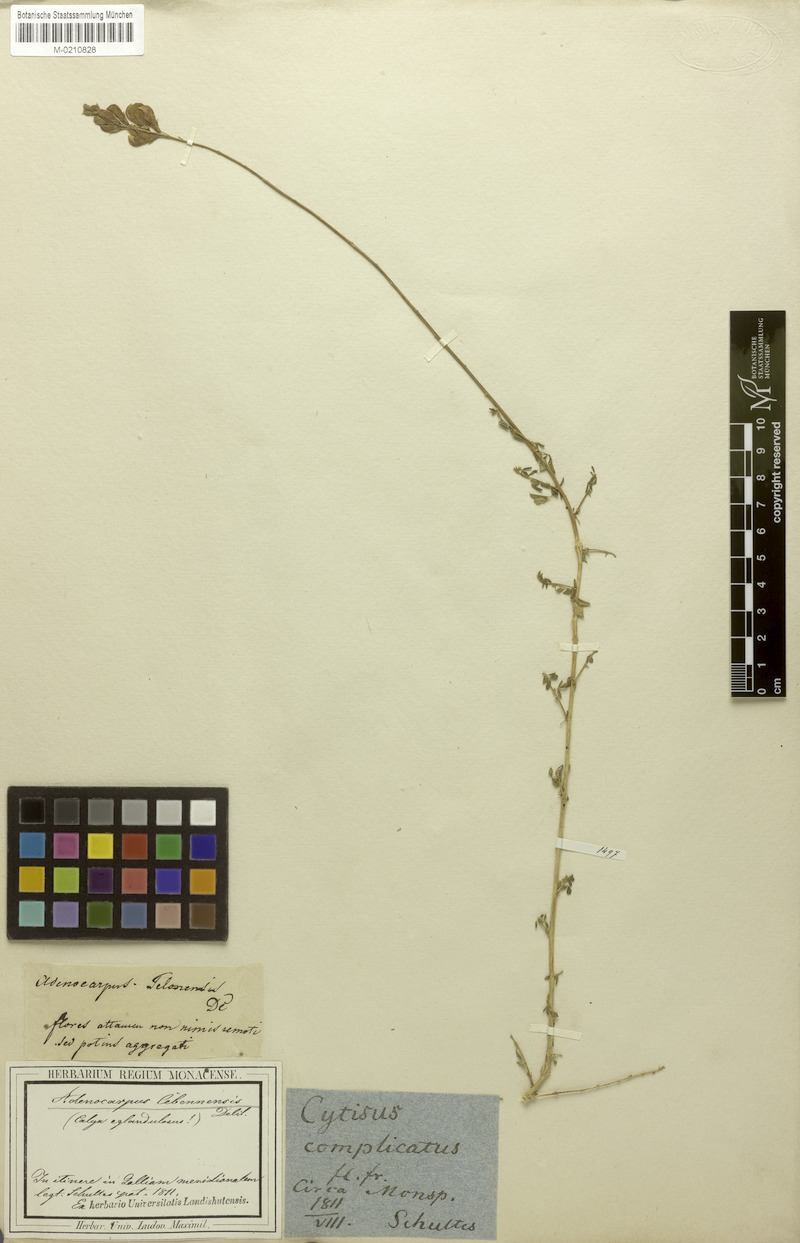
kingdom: Plantae
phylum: Tracheophyta
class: Magnoliopsida
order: Fabales
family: Fabaceae
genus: Adenocarpus
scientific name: Adenocarpus complicatus
